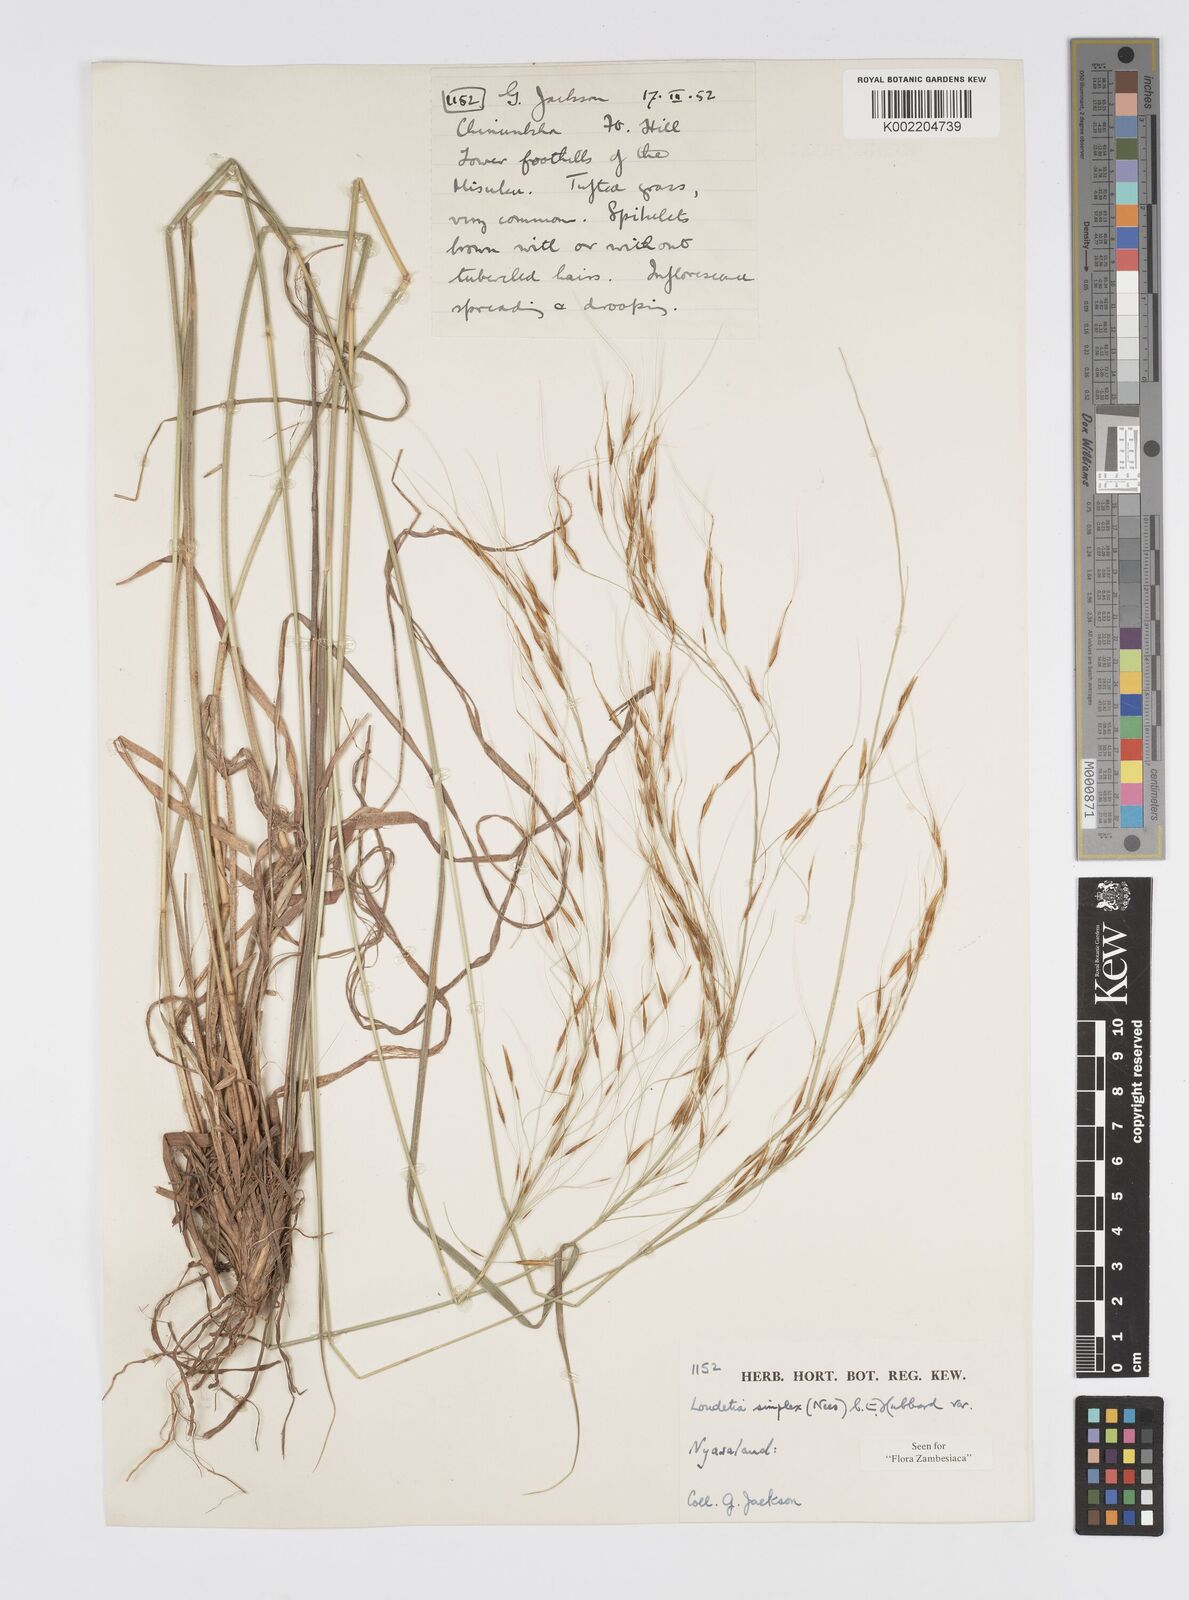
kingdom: Plantae
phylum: Tracheophyta
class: Liliopsida
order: Poales
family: Poaceae
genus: Loudetia
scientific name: Loudetia simplex
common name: Common russet grass
